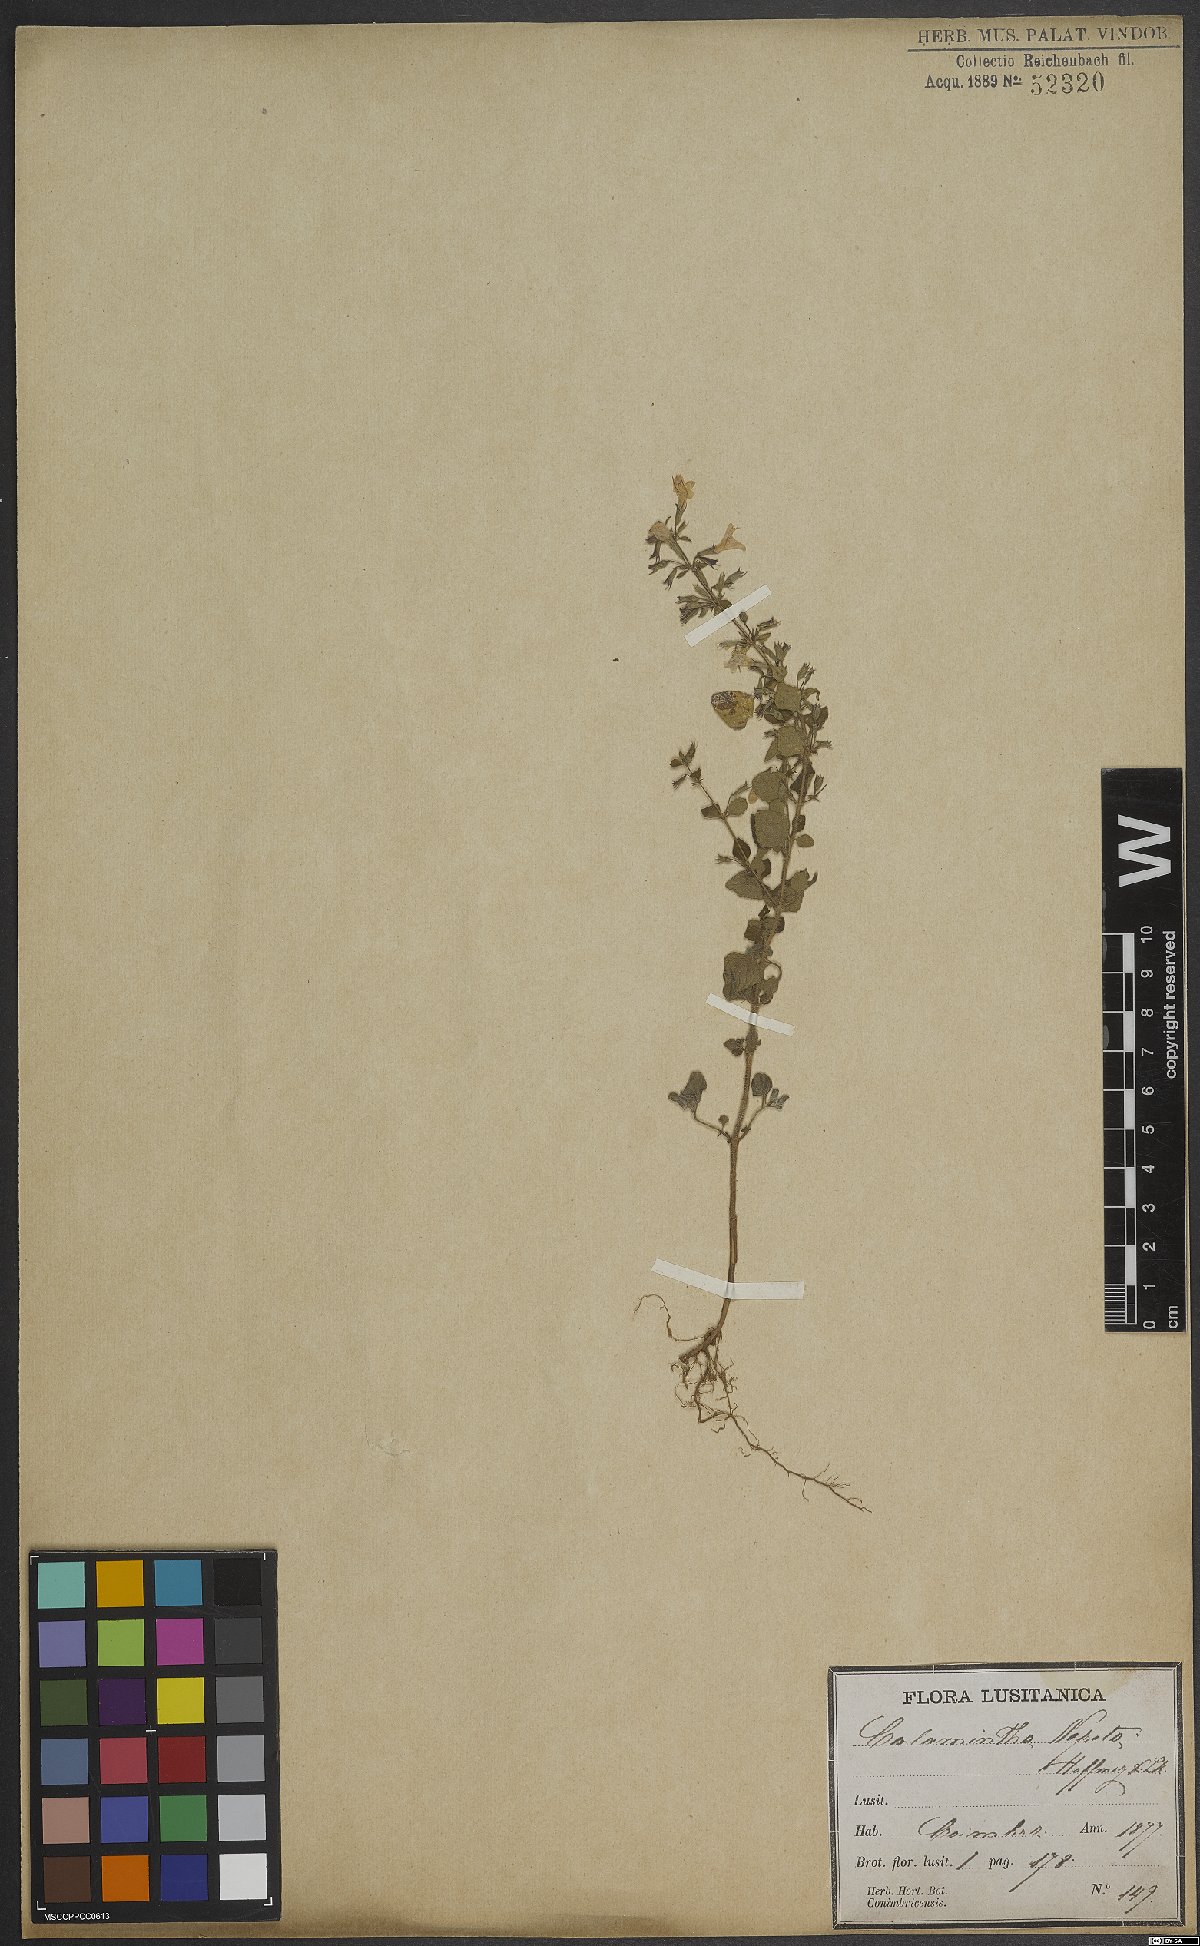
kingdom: Plantae
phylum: Tracheophyta
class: Magnoliopsida
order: Lamiales
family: Lamiaceae
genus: Clinopodium
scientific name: Clinopodium nepeta
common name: Lesser calamint
